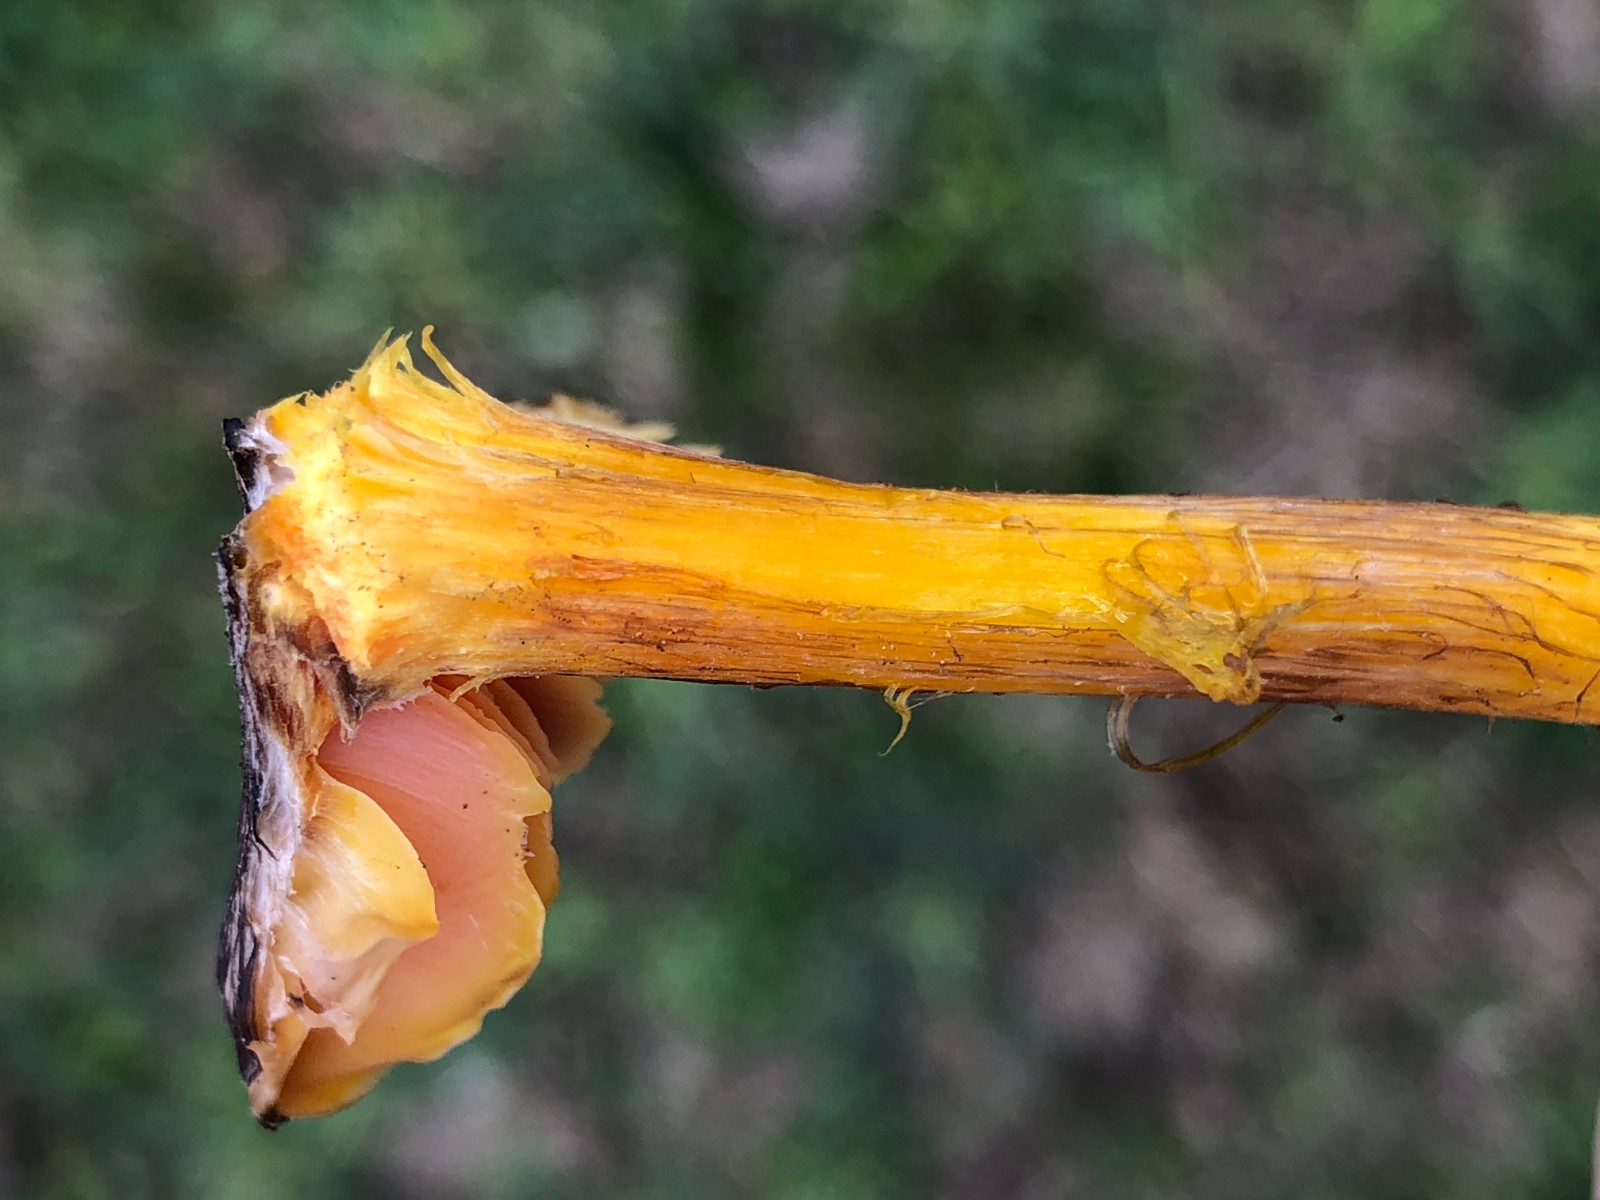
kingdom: Fungi
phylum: Basidiomycota
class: Agaricomycetes
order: Agaricales
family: Hygrophoraceae
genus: Hygrocybe
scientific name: Hygrocybe spadicea
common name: daddelbrun vokshat
